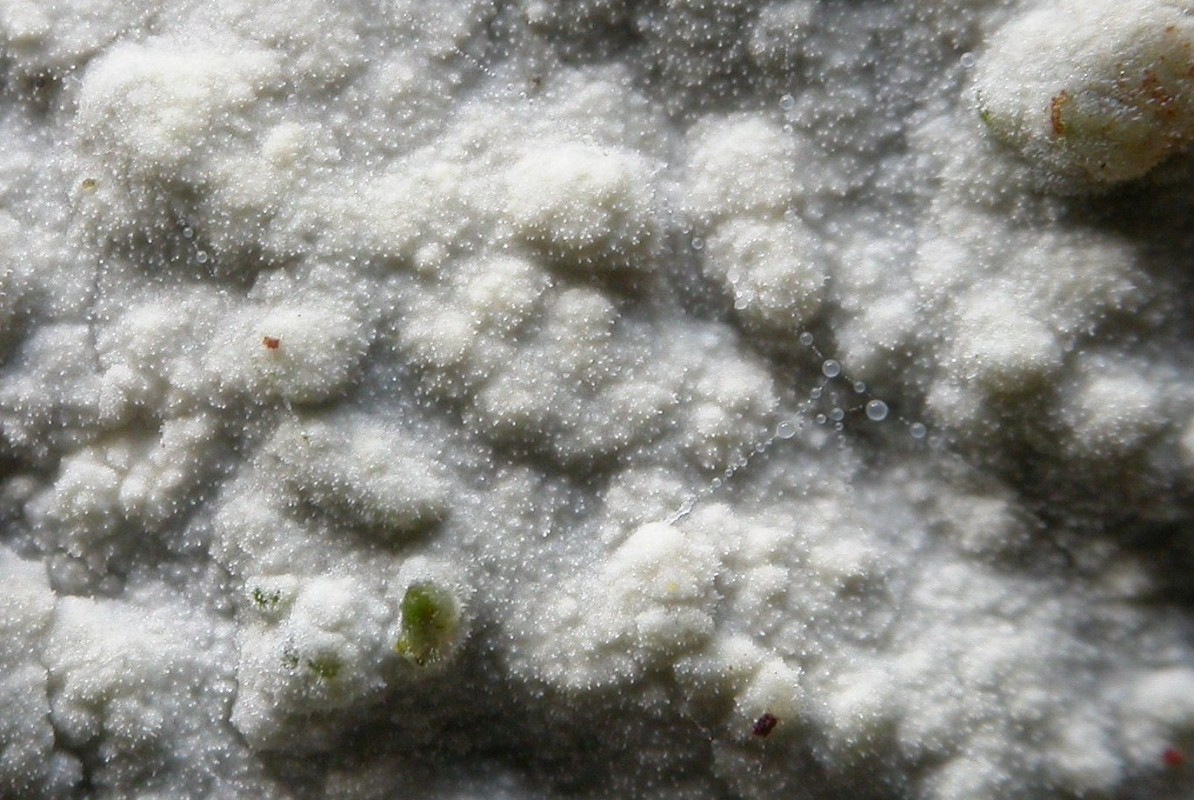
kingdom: Fungi
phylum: Basidiomycota
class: Agaricomycetes
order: Polyporales
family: Hyphodermataceae
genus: Hyphoderma
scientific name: Hyphoderma setigerum
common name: håret kalkskind
